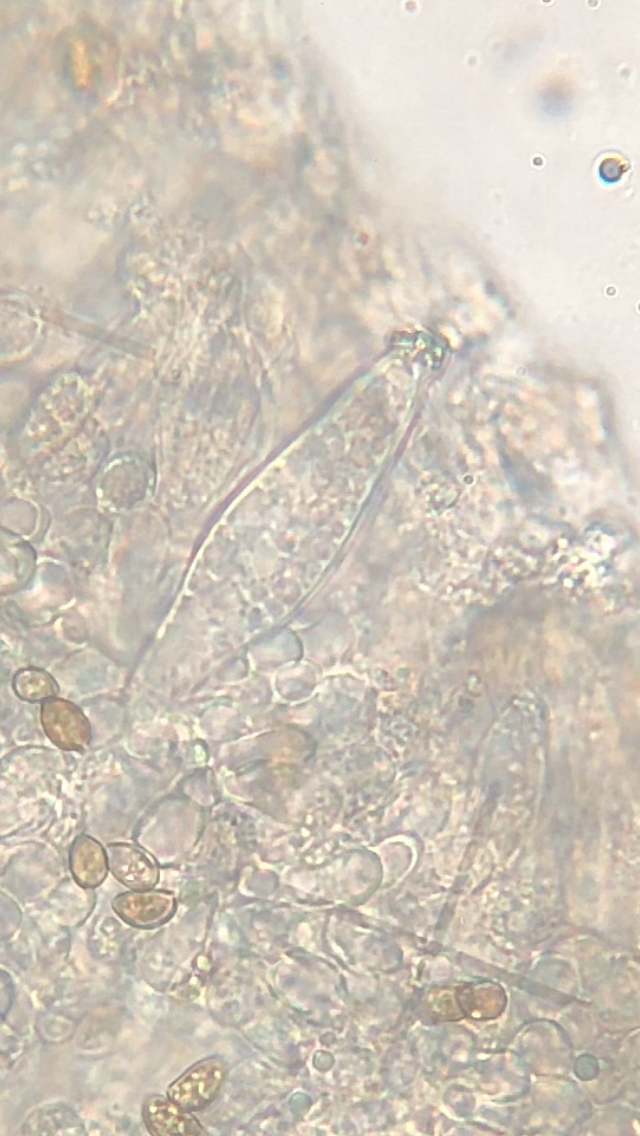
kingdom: Fungi
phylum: Basidiomycota
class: Agaricomycetes
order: Agaricales
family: Inocybaceae
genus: Inocybe
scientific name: Inocybe
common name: trævlhat
